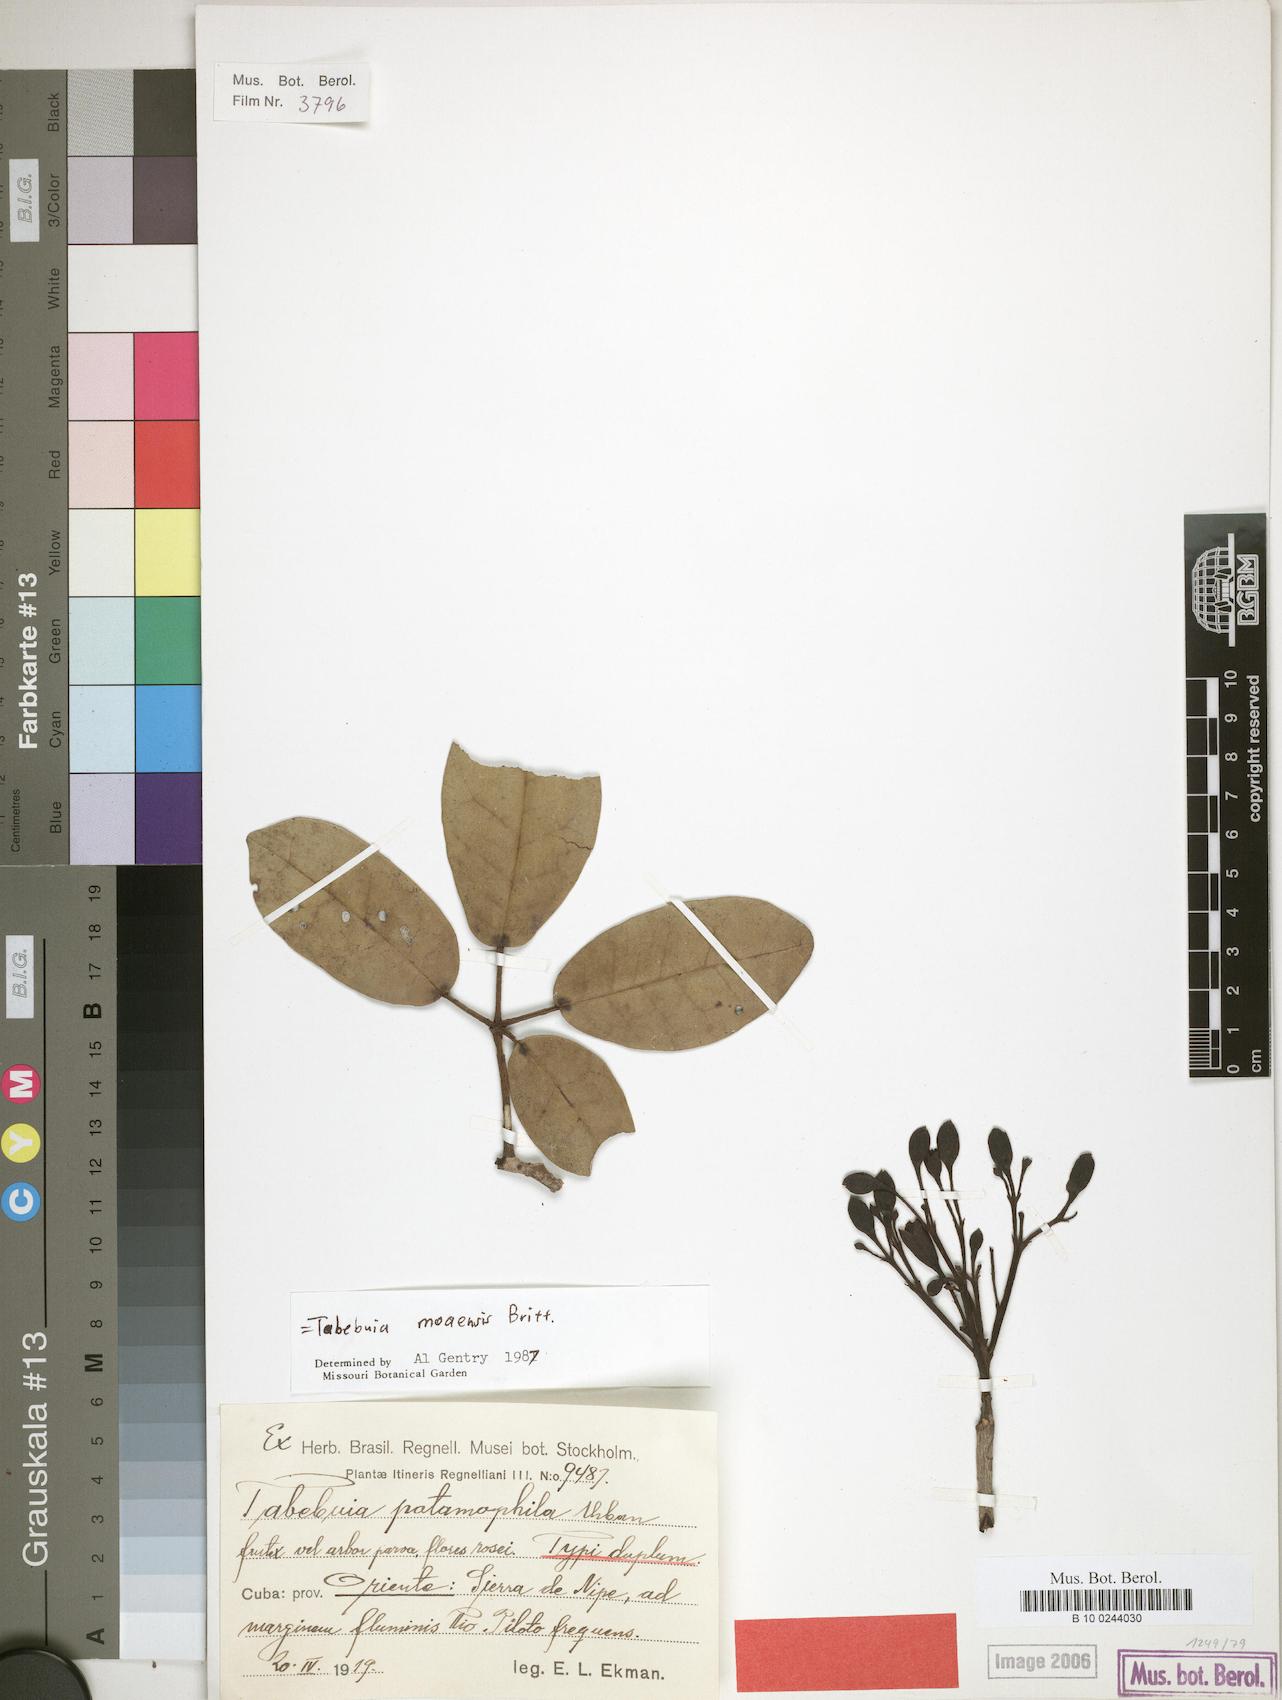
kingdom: Plantae
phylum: Tracheophyta
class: Magnoliopsida
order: Lamiales
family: Bignoniaceae
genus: Tabebuia
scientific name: Tabebuia moaensis
